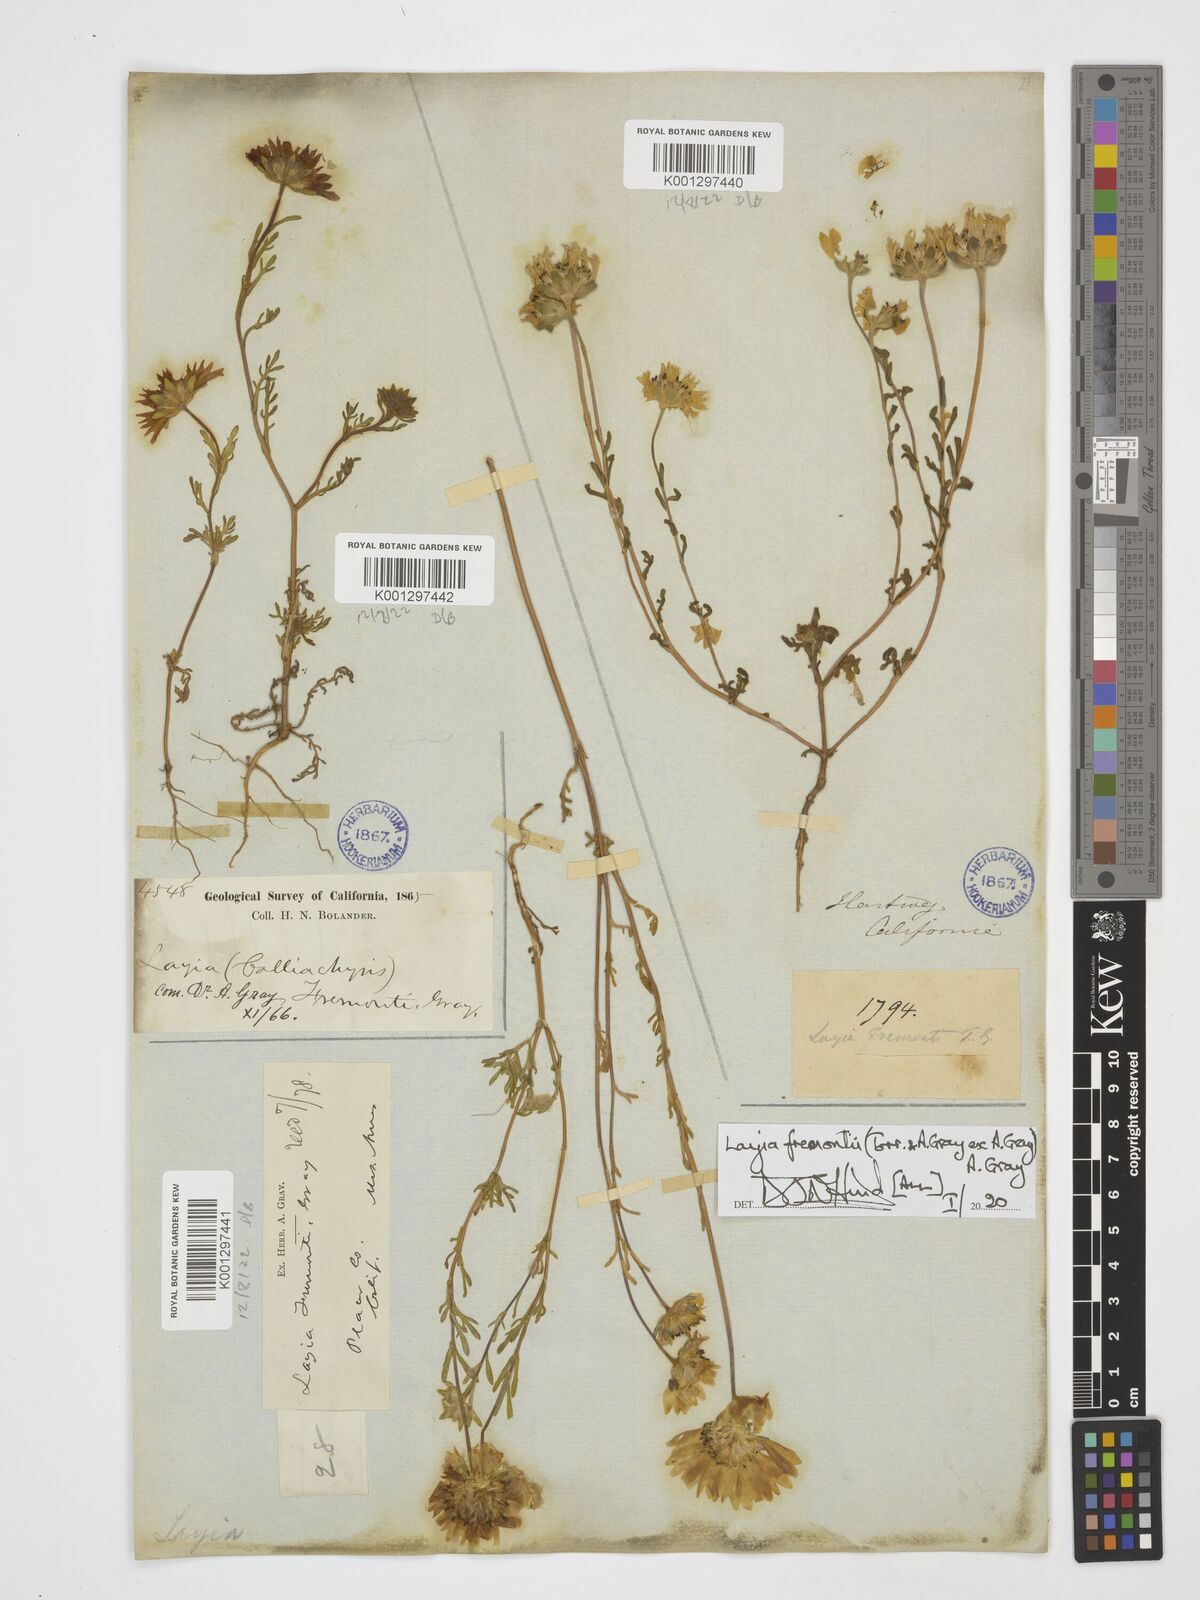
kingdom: Plantae
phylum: Tracheophyta
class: Magnoliopsida
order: Asterales
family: Asteraceae
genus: Layia
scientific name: Layia fremontii
